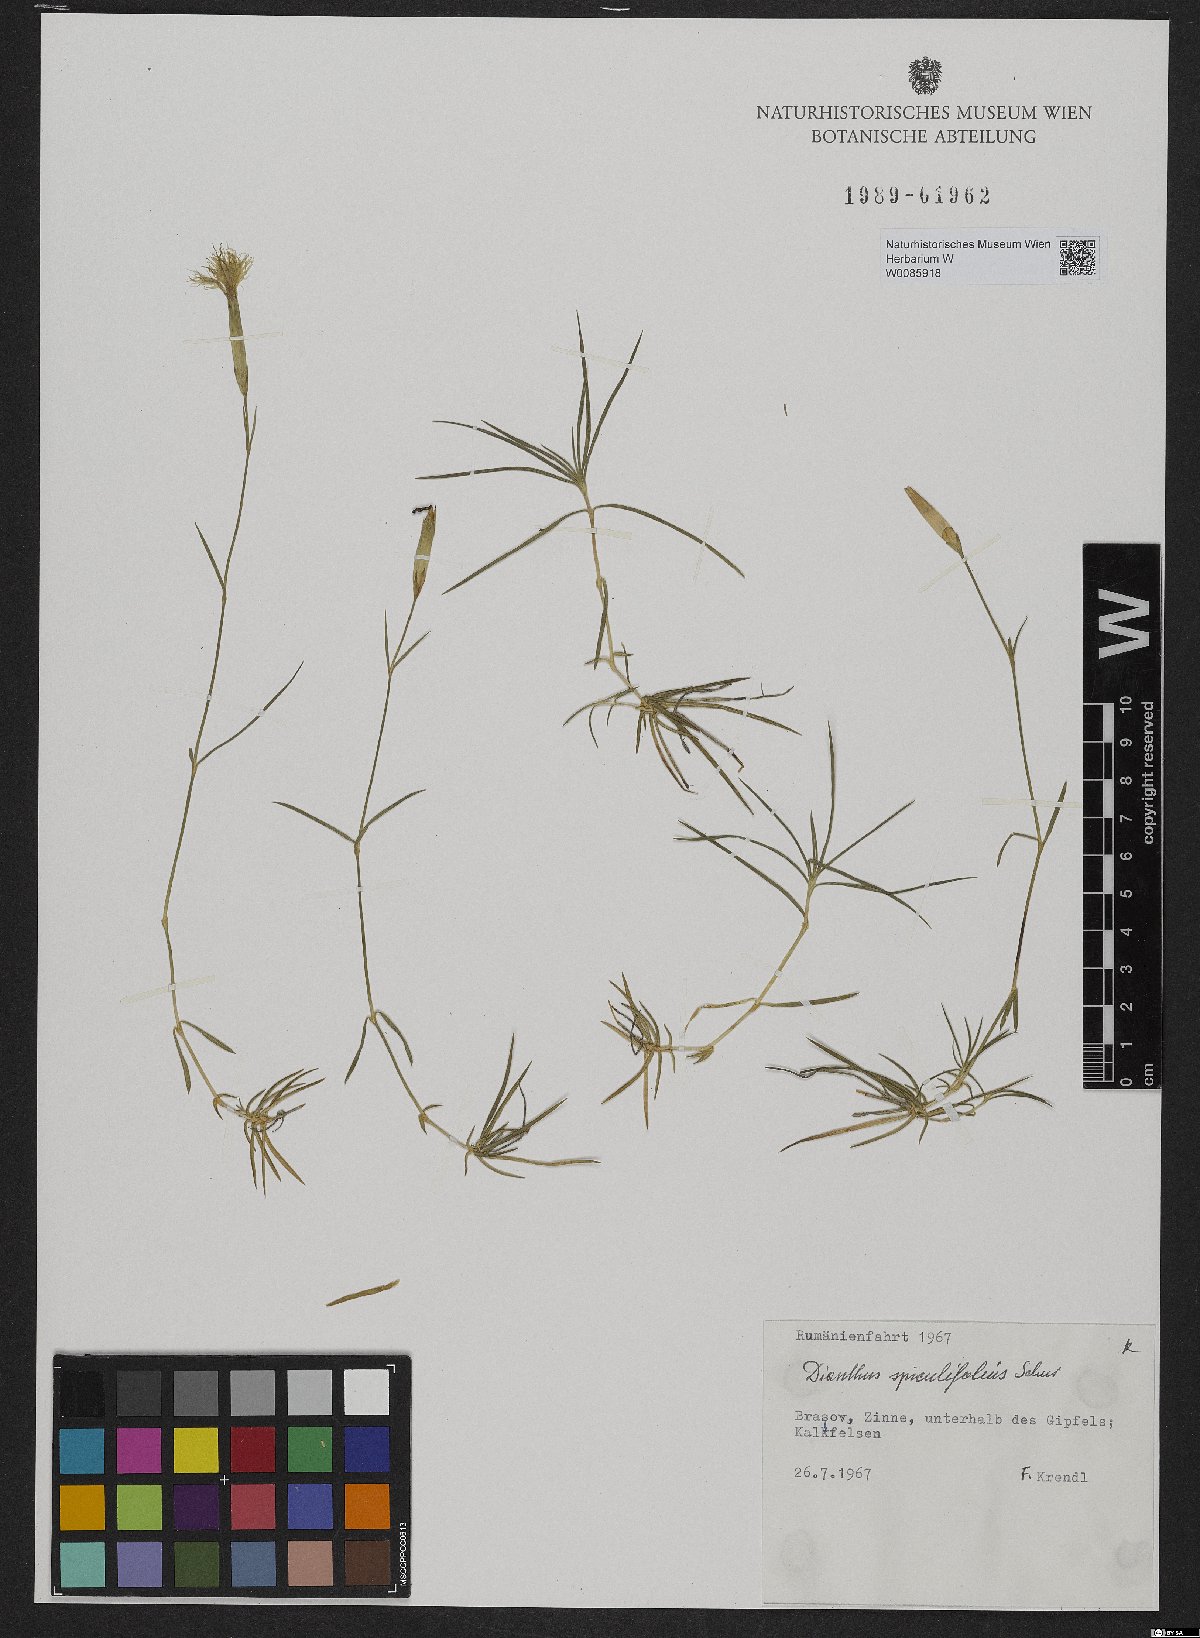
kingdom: Plantae
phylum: Tracheophyta
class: Magnoliopsida
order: Caryophyllales
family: Caryophyllaceae
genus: Dianthus
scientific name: Dianthus spiculifolius
